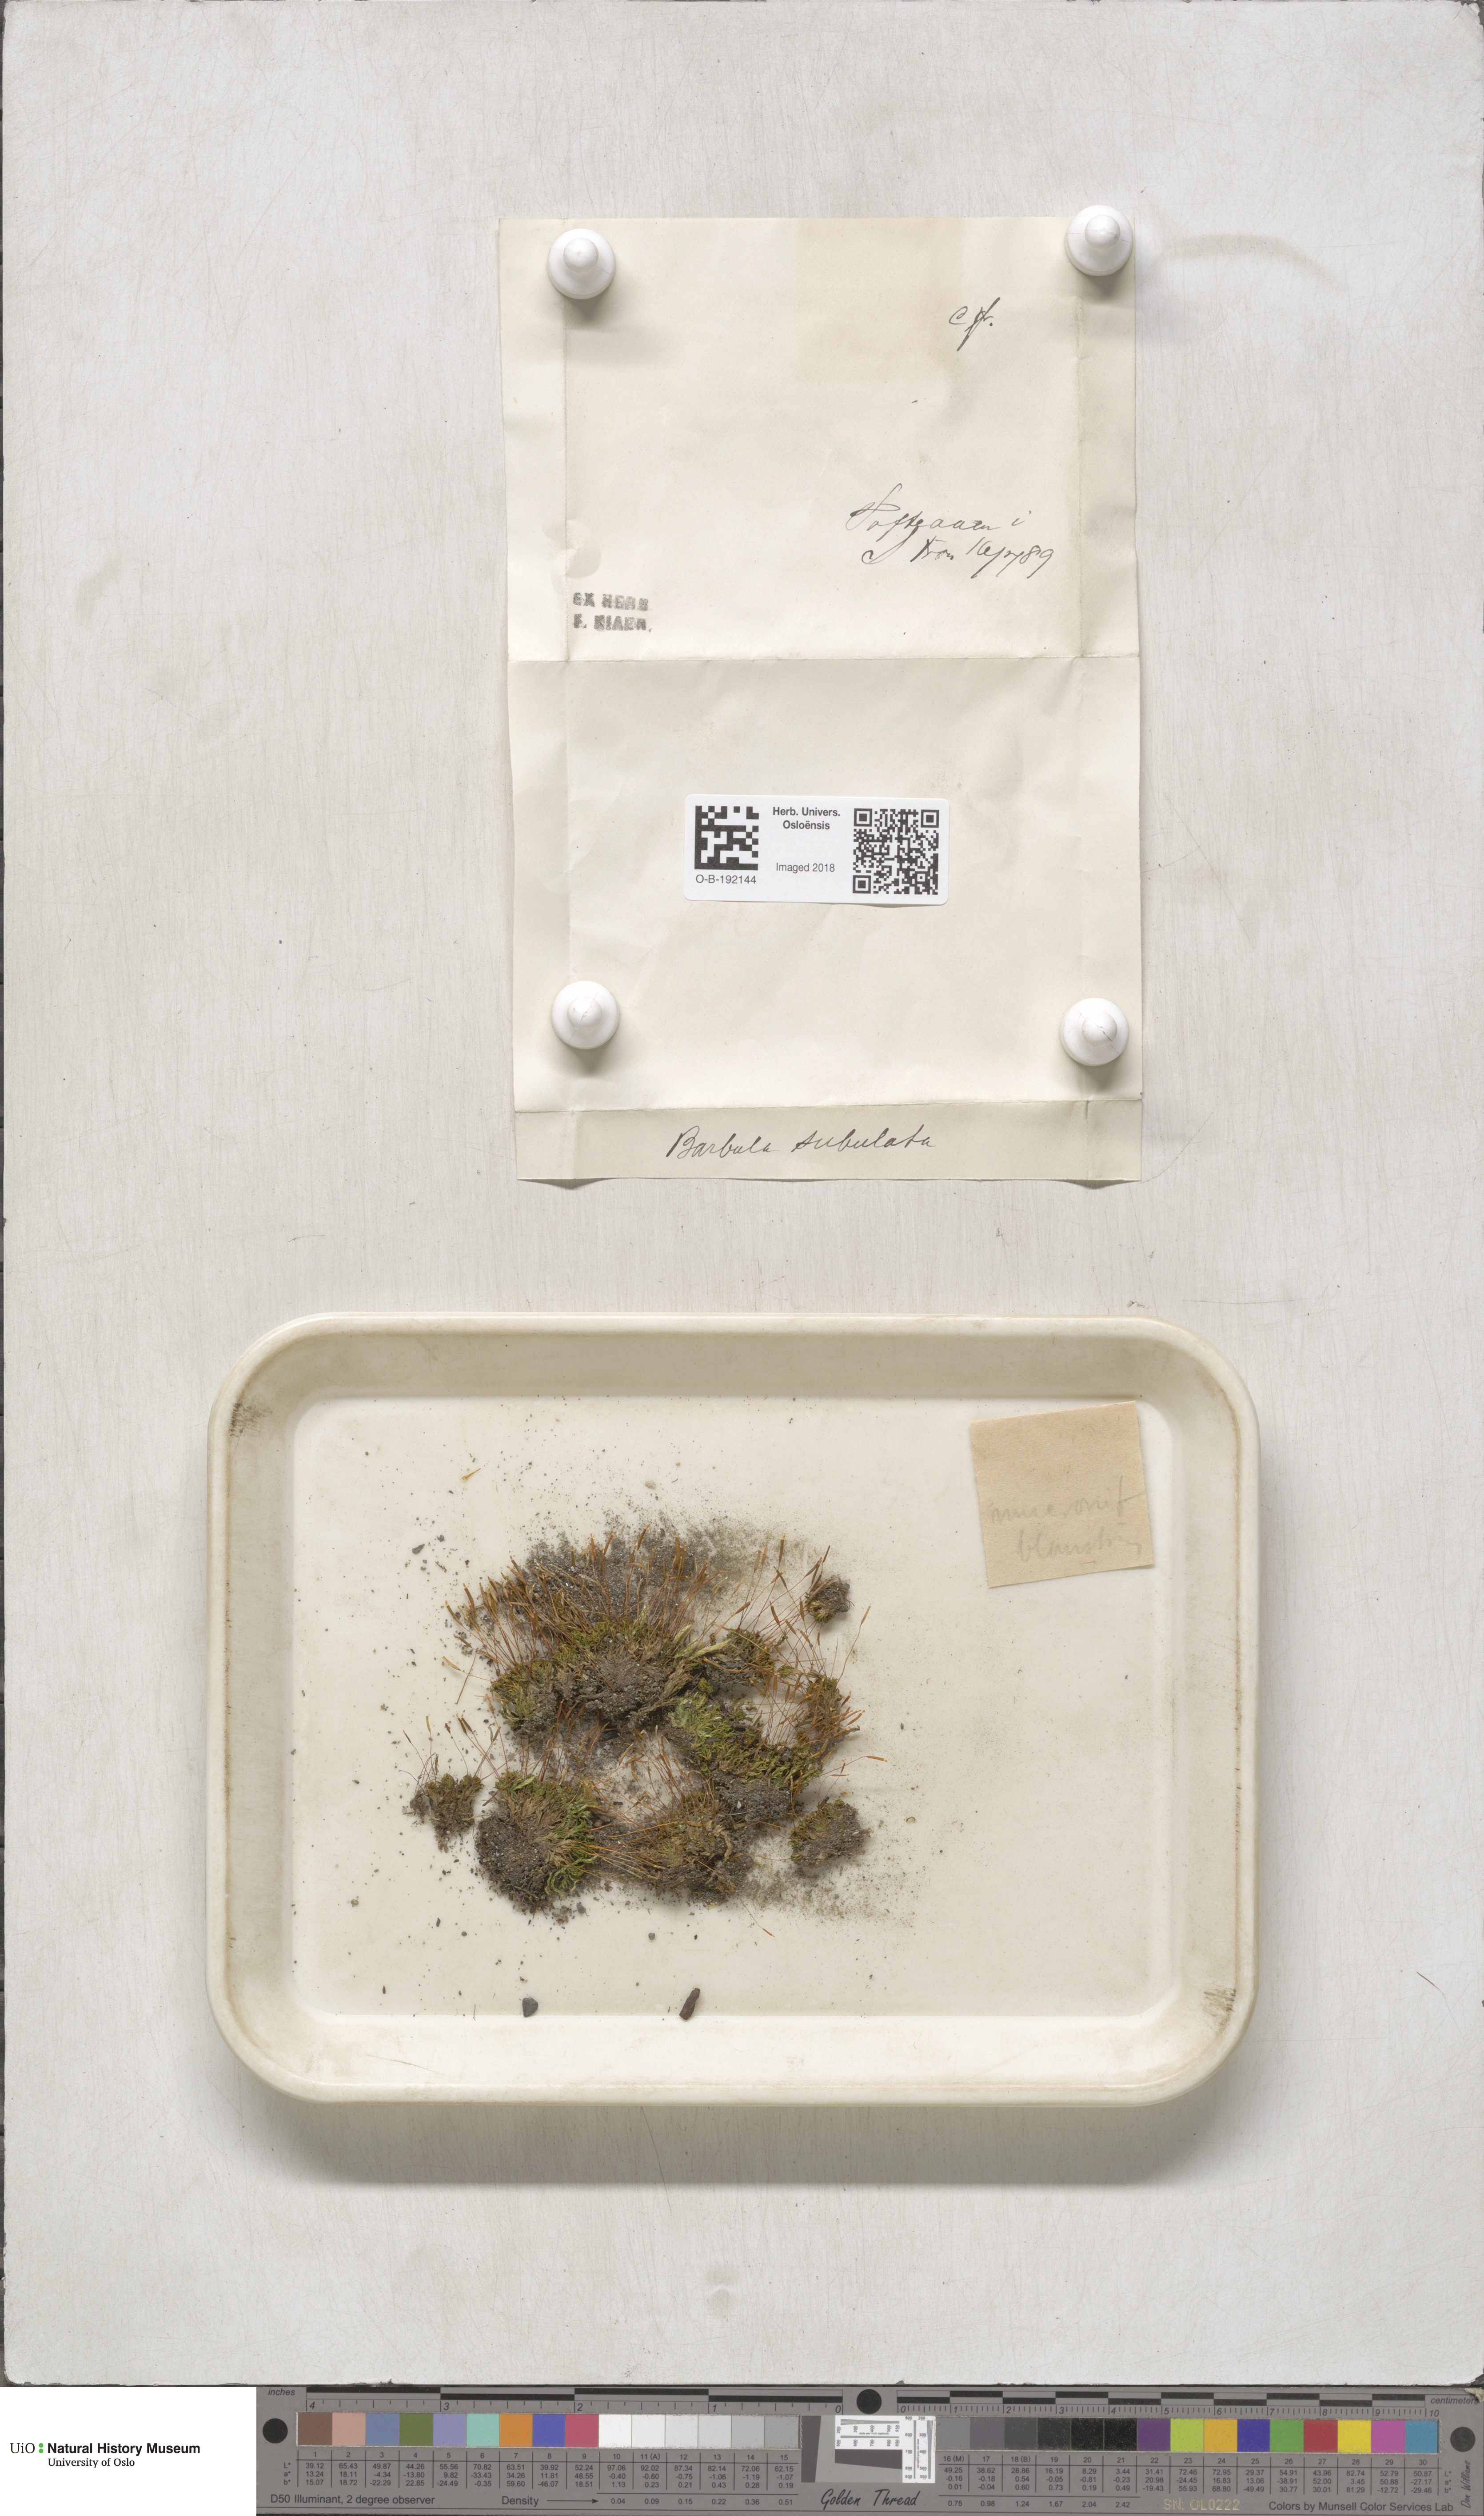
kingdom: Plantae
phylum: Bryophyta
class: Bryopsida
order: Pottiales
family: Pottiaceae
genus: Tortula
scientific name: Tortula mucronifolia
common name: Mucronate screw moss
